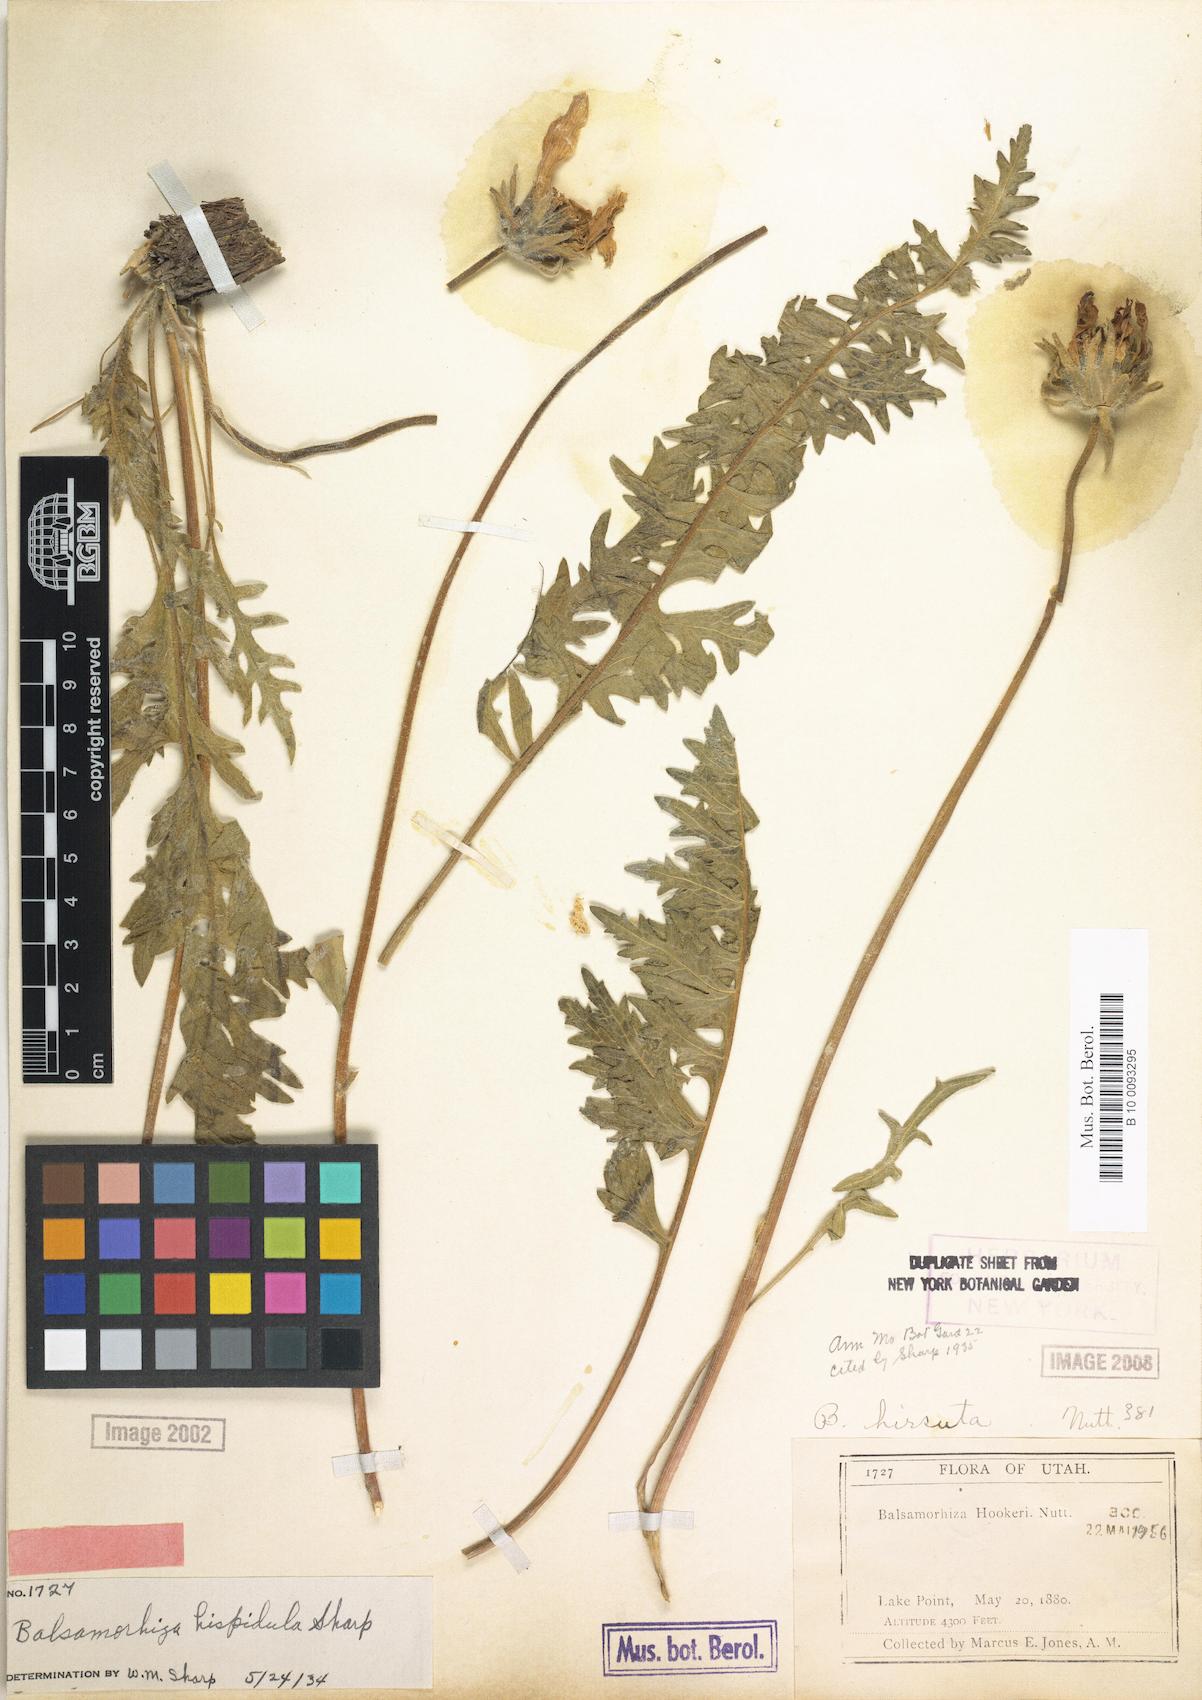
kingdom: Plantae
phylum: Tracheophyta
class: Magnoliopsida
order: Asterales
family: Asteraceae
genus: Balsamorhiza
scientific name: Balsamorhiza hispidula
